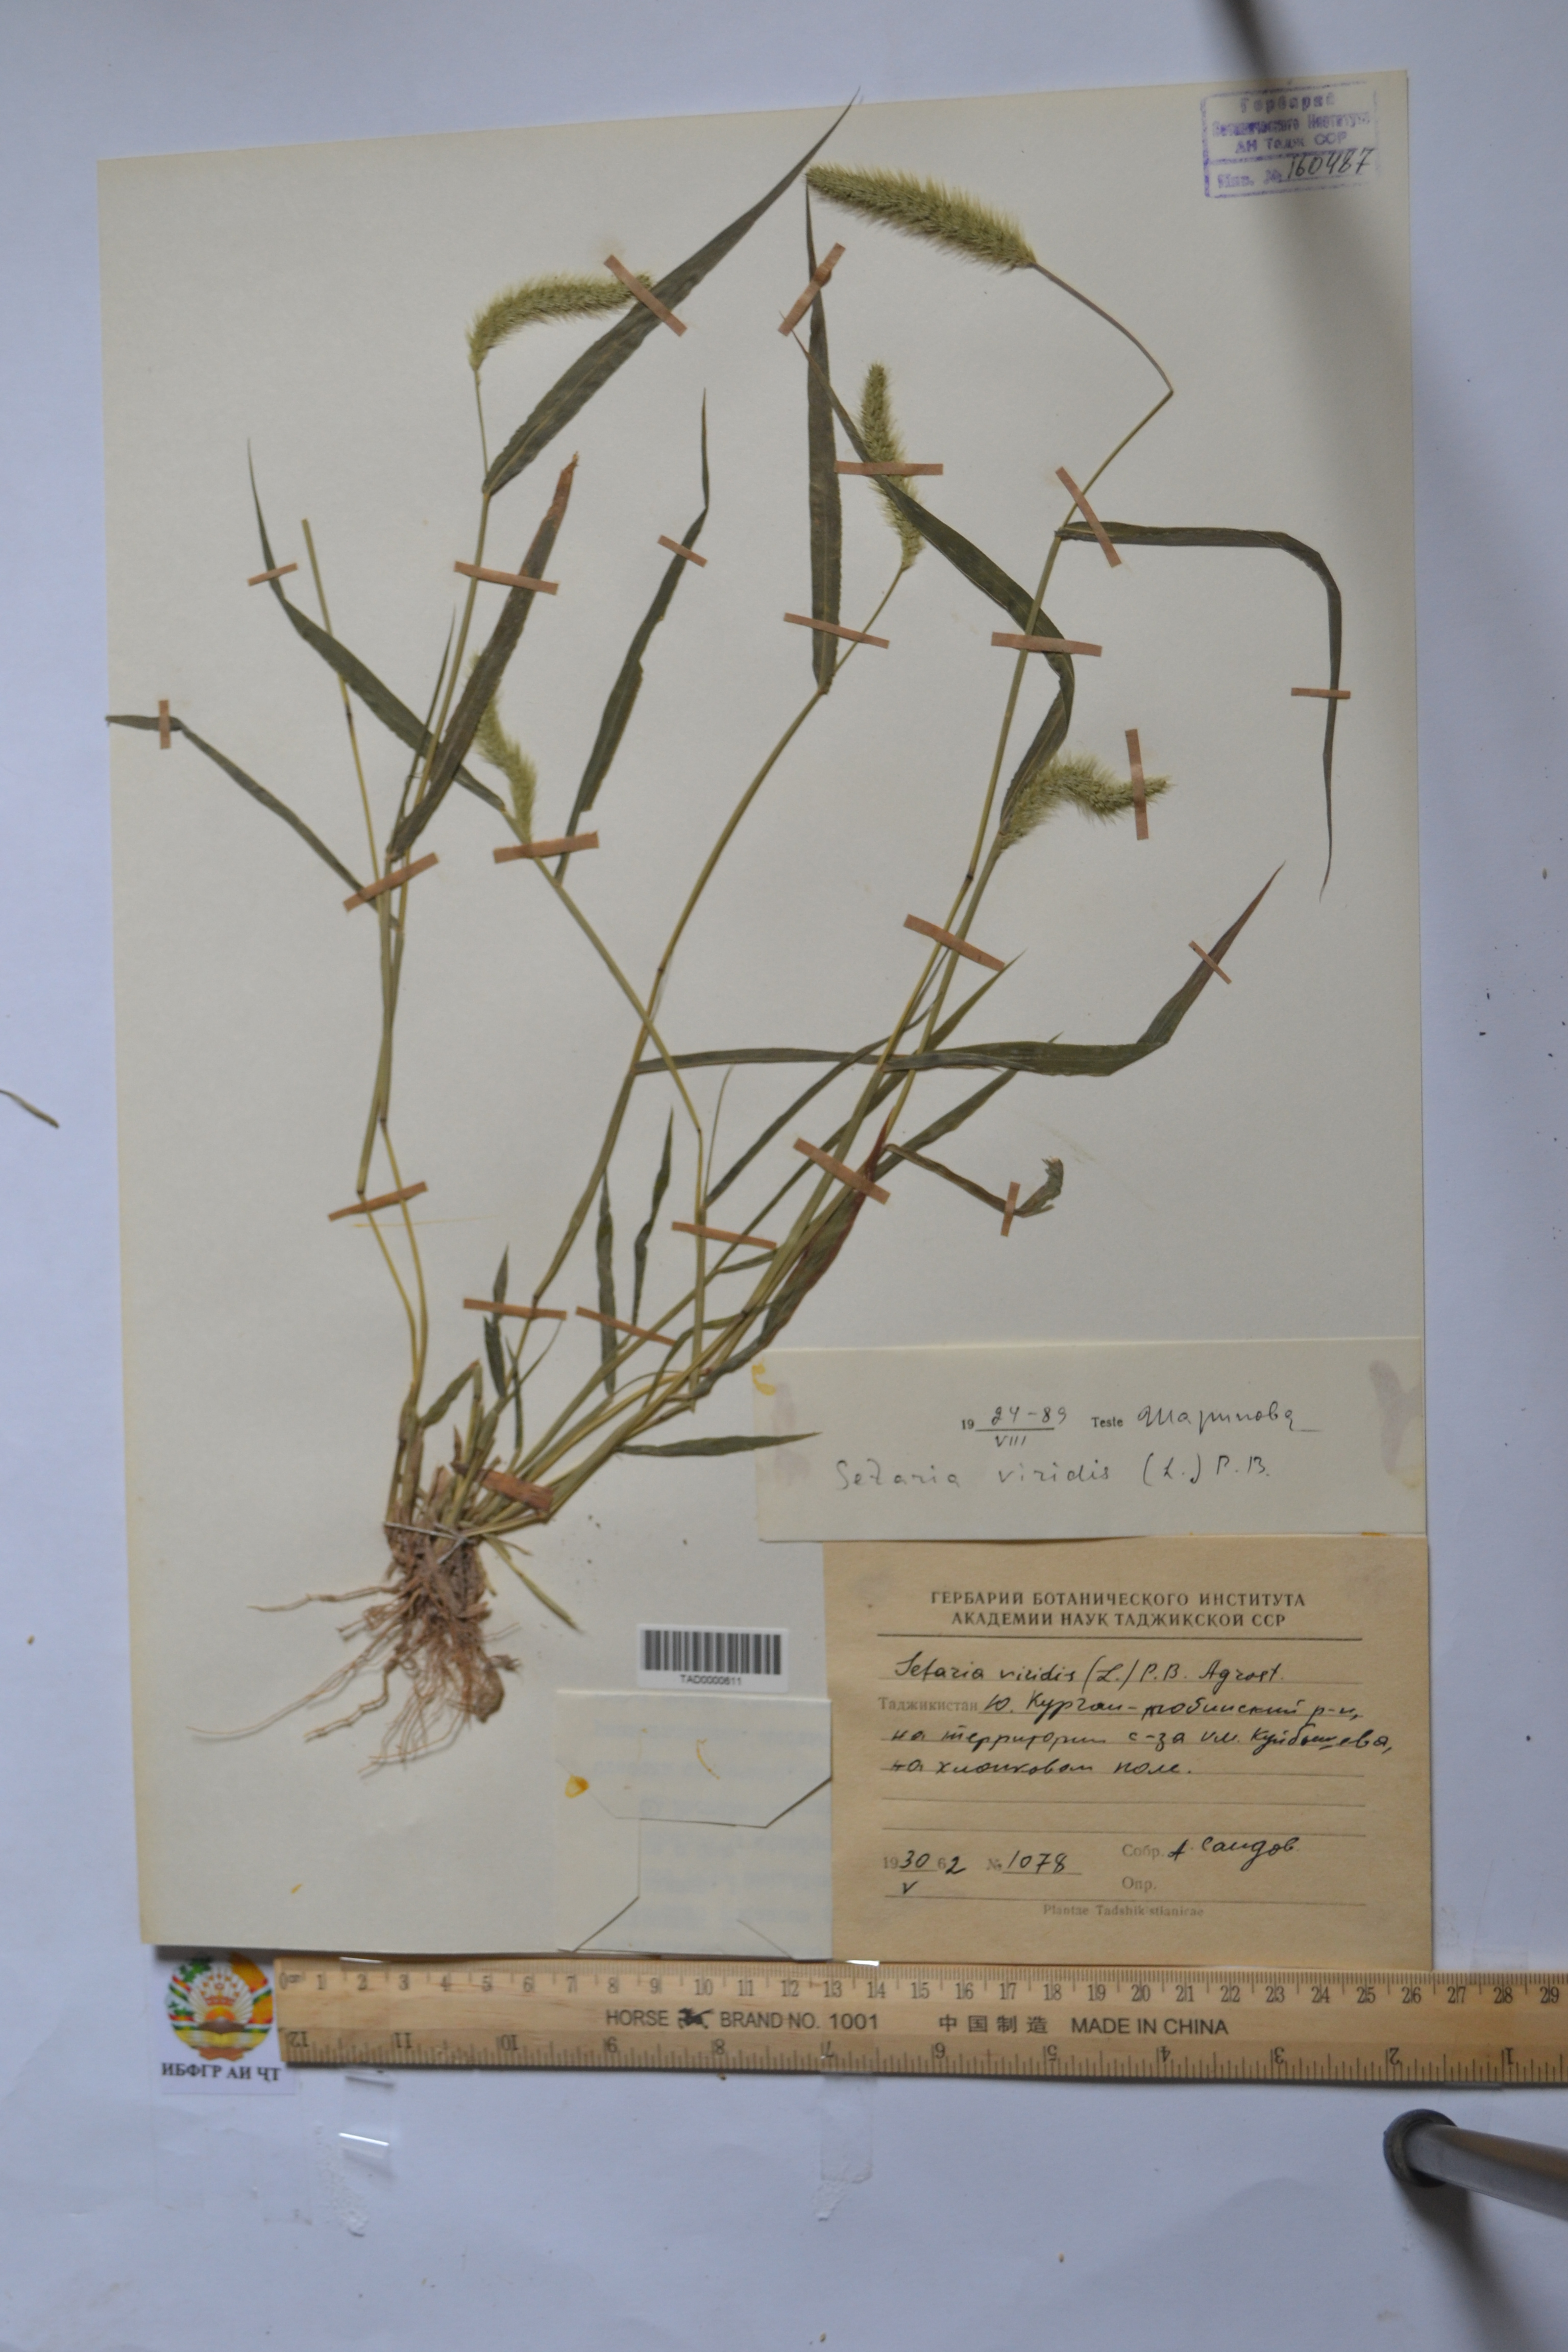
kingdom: Plantae
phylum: Tracheophyta
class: Liliopsida
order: Poales
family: Poaceae
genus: Setaria
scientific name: Setaria viridis
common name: Green bristlegrass
